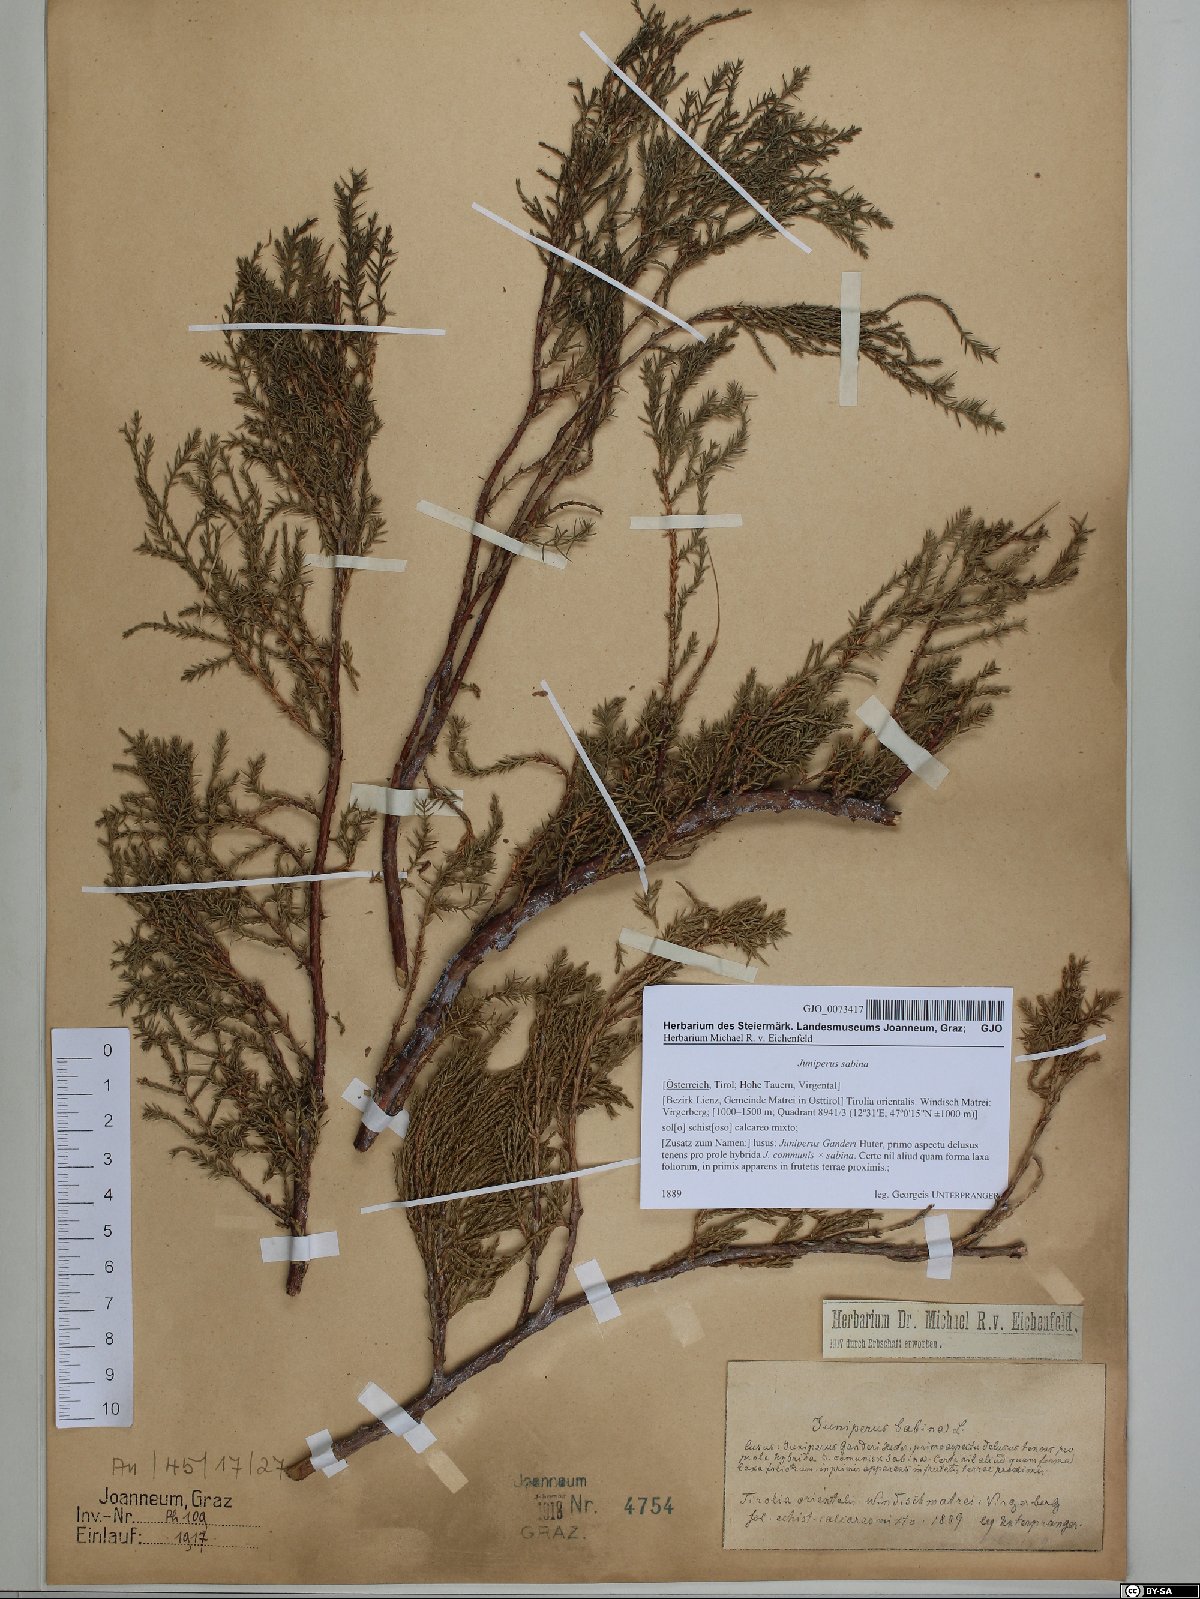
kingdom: Plantae
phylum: Tracheophyta
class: Pinopsida
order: Pinales
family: Cupressaceae
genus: Juniperus
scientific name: Juniperus sabina
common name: Savin
